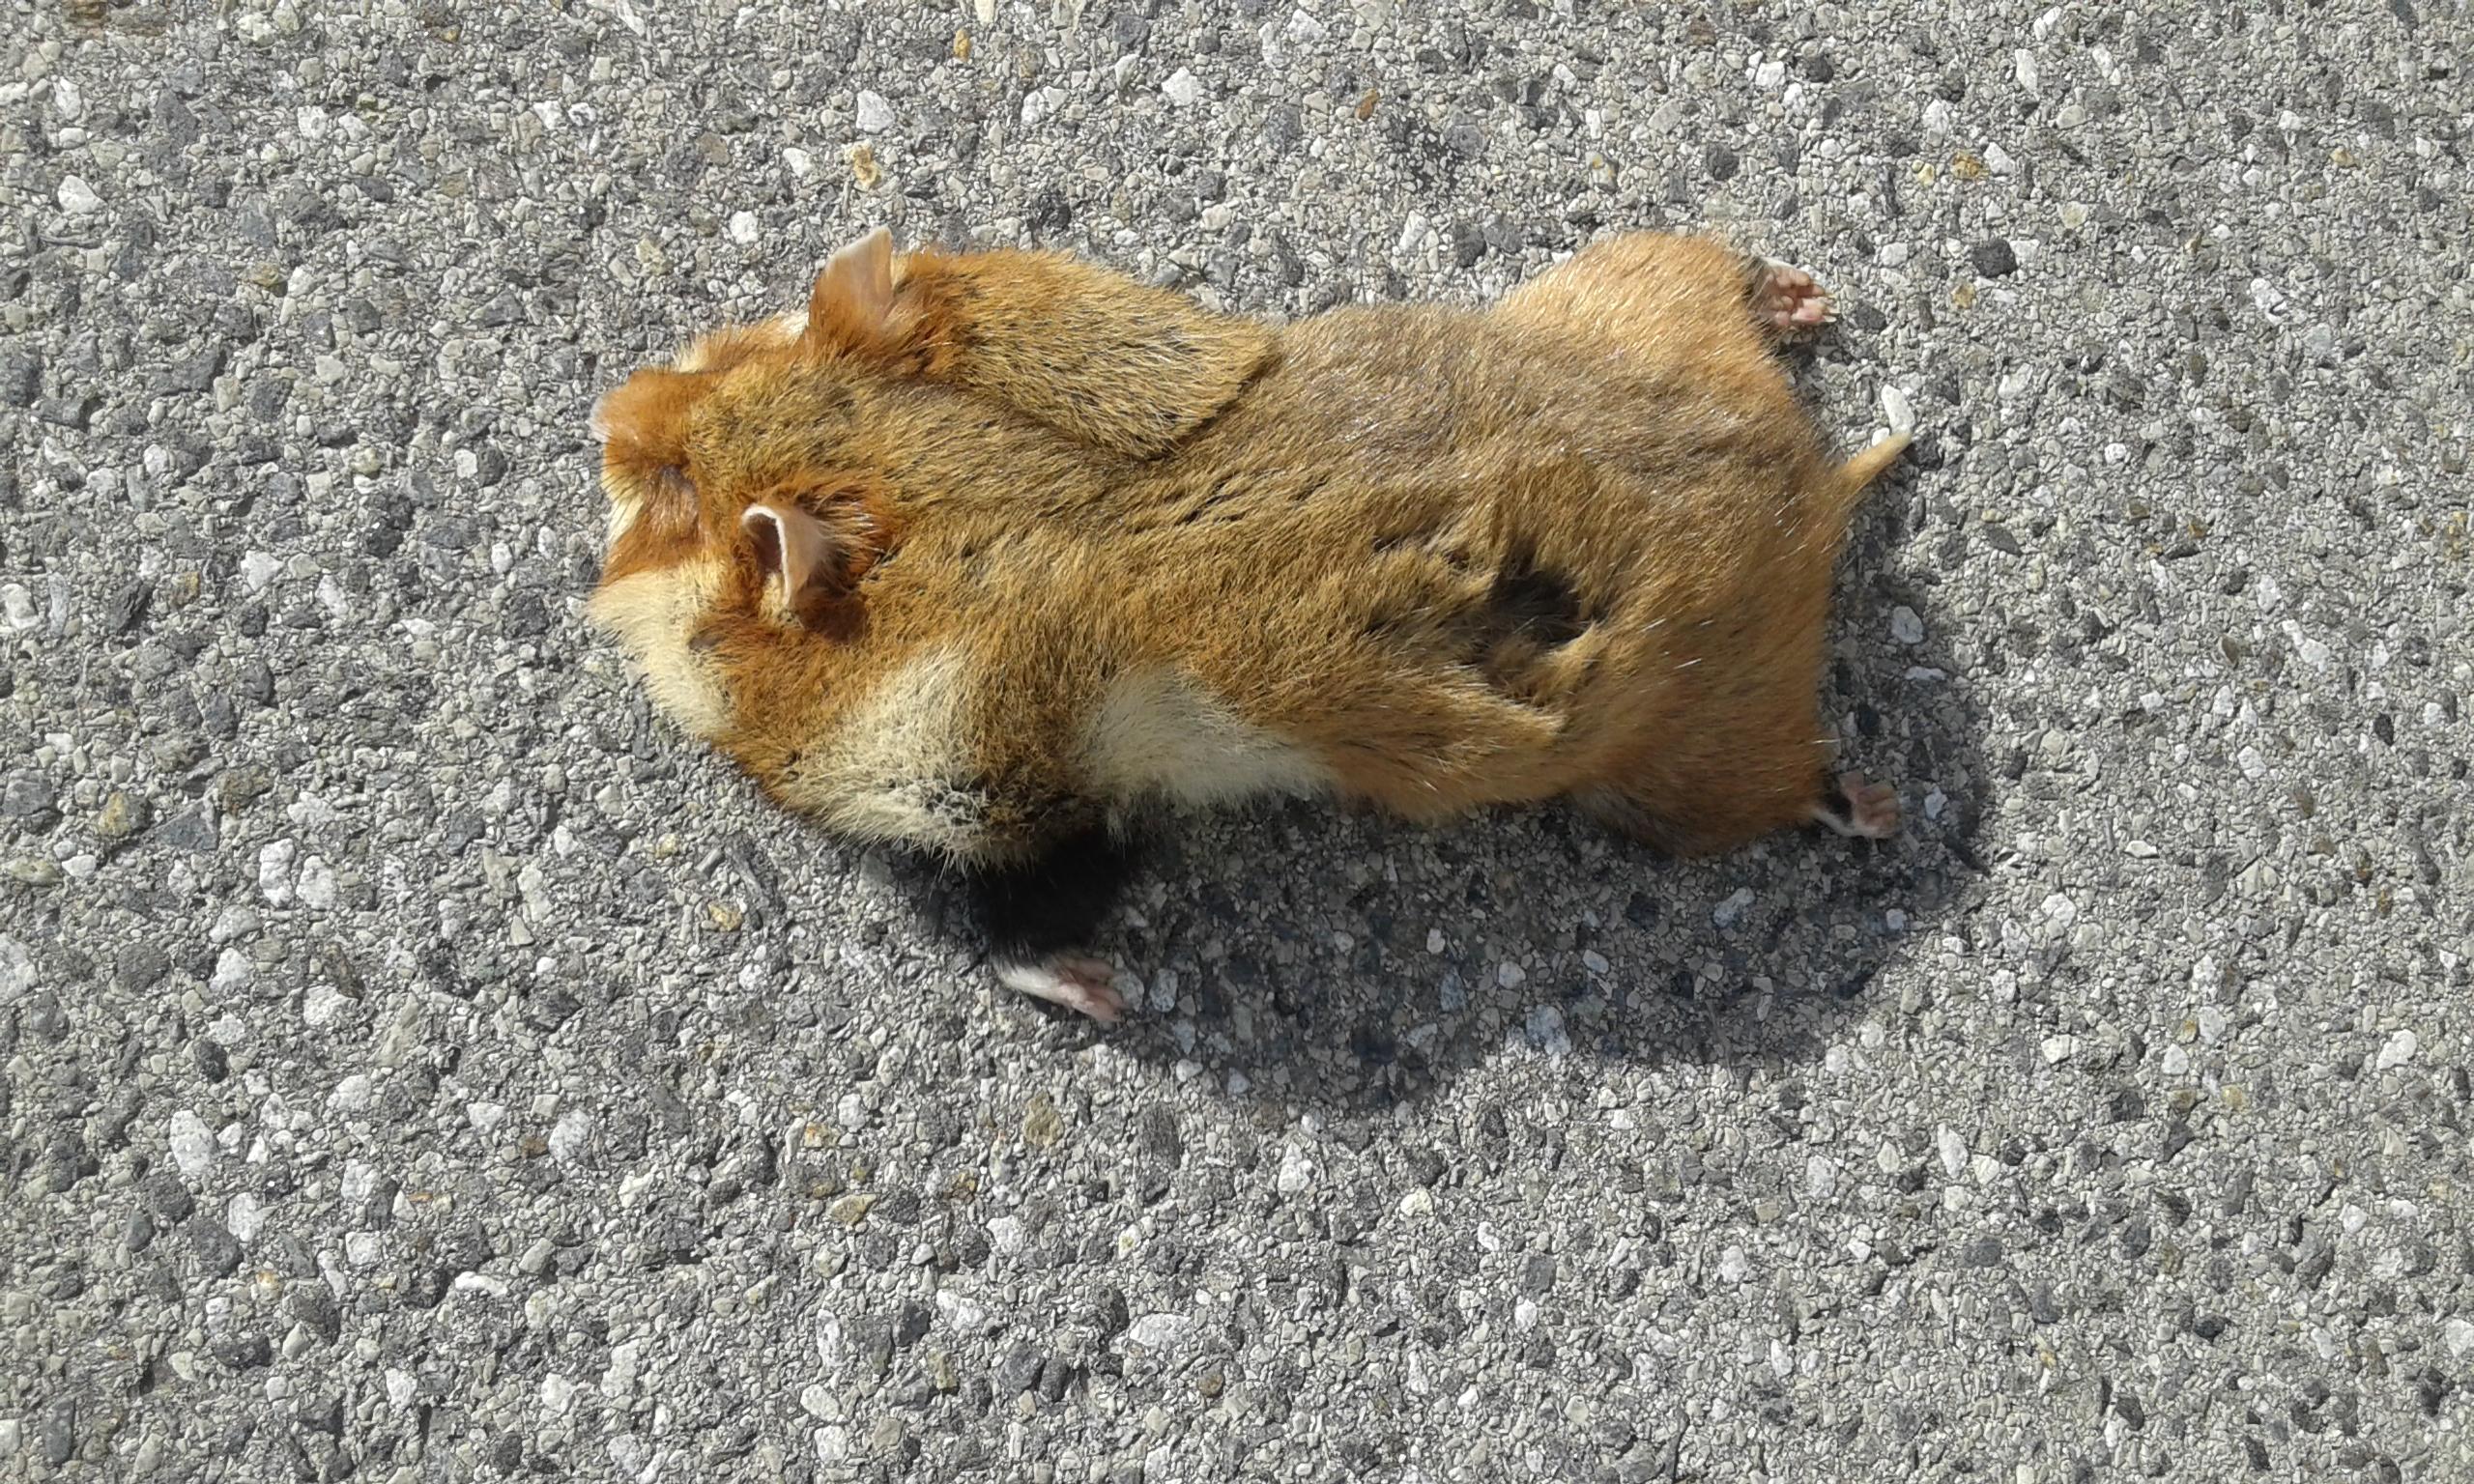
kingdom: Animalia
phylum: Chordata
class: Mammalia
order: Rodentia
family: Cricetidae
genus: Cricetus
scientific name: Cricetus cricetus
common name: Common hamster
